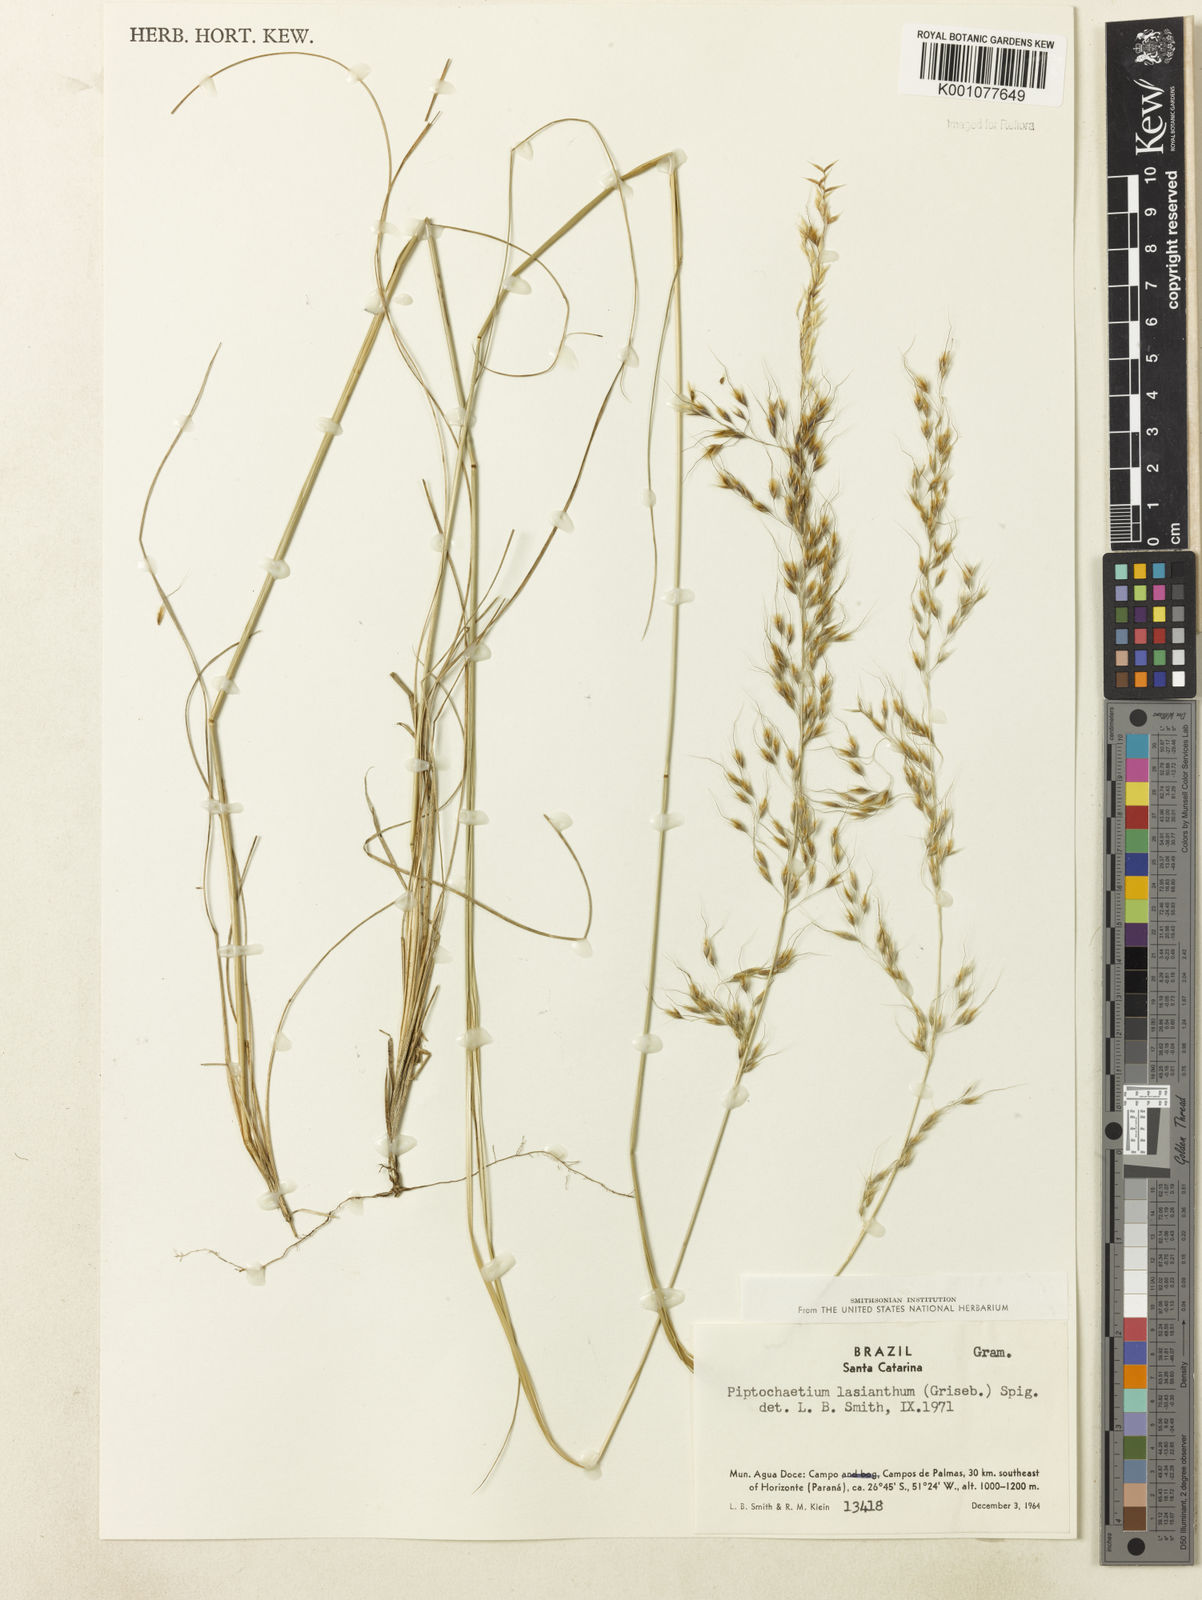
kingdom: Plantae
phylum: Tracheophyta
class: Liliopsida
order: Poales
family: Poaceae
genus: Piptochaetium
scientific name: Piptochaetium lasianthum
